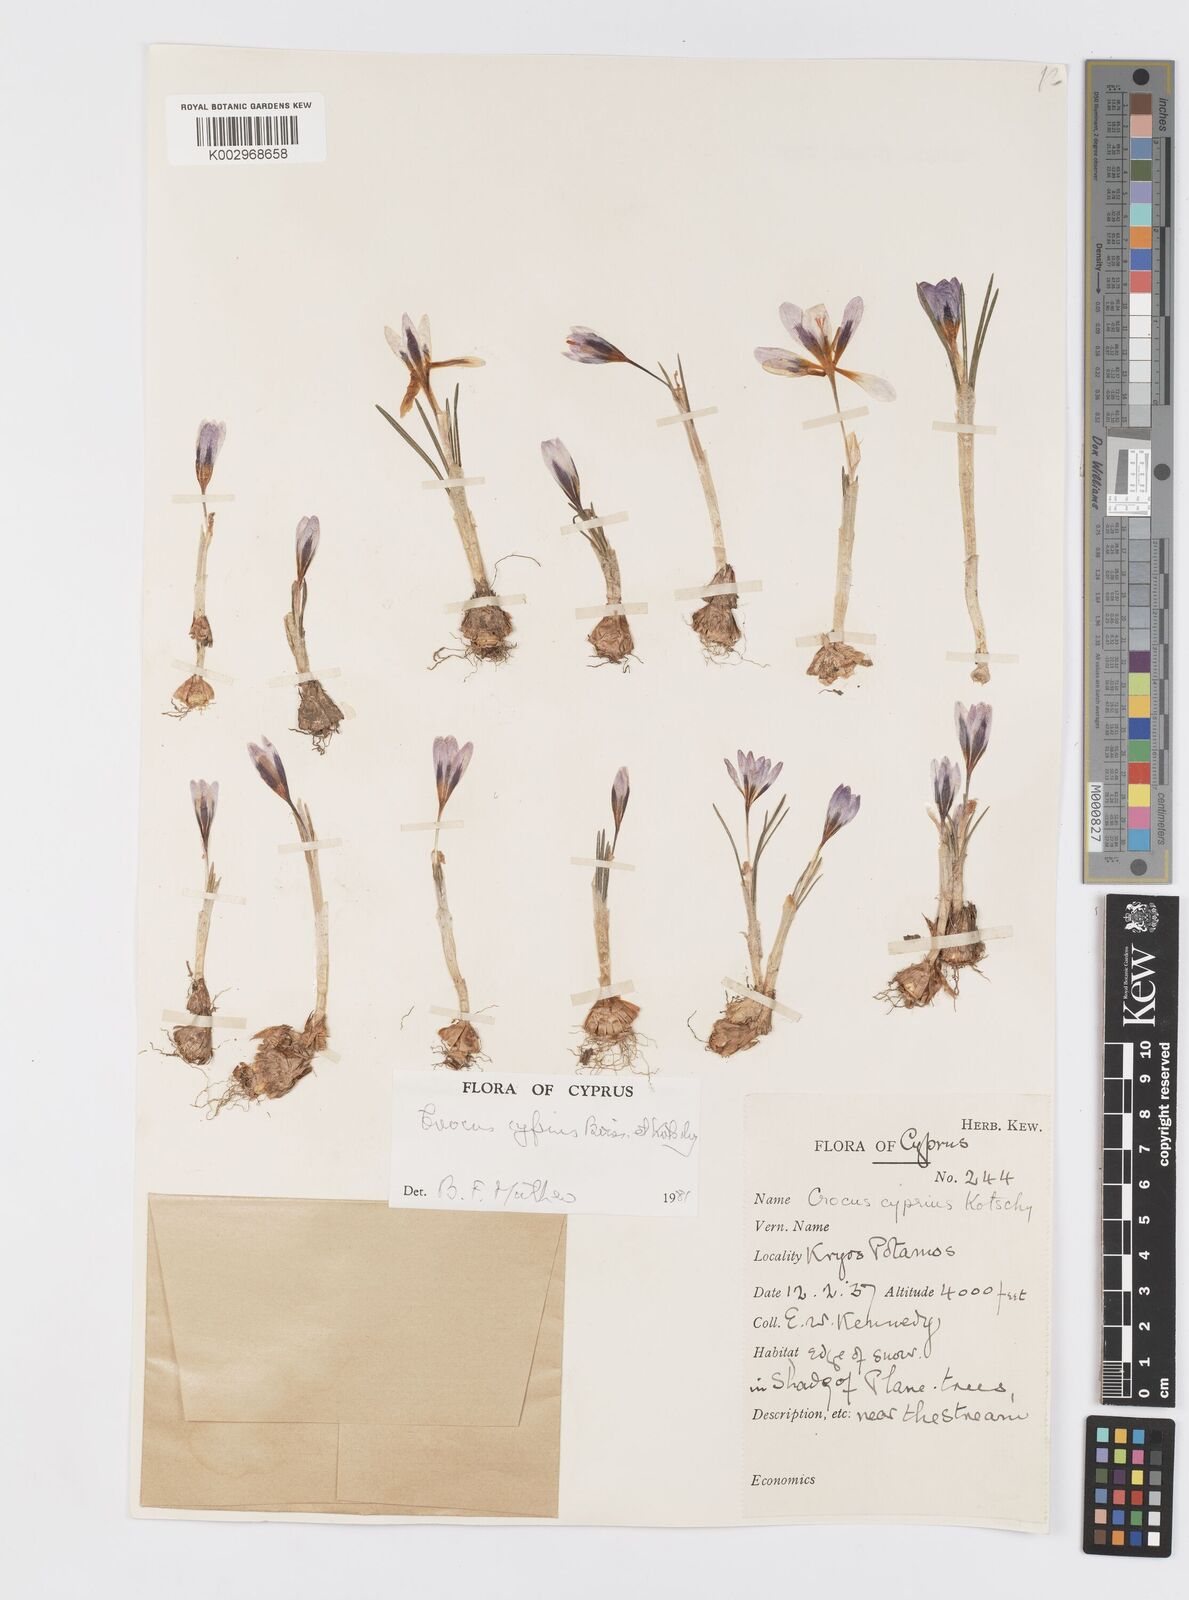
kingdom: Plantae
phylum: Tracheophyta
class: Liliopsida
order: Asparagales
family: Iridaceae
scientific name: Iridaceae
